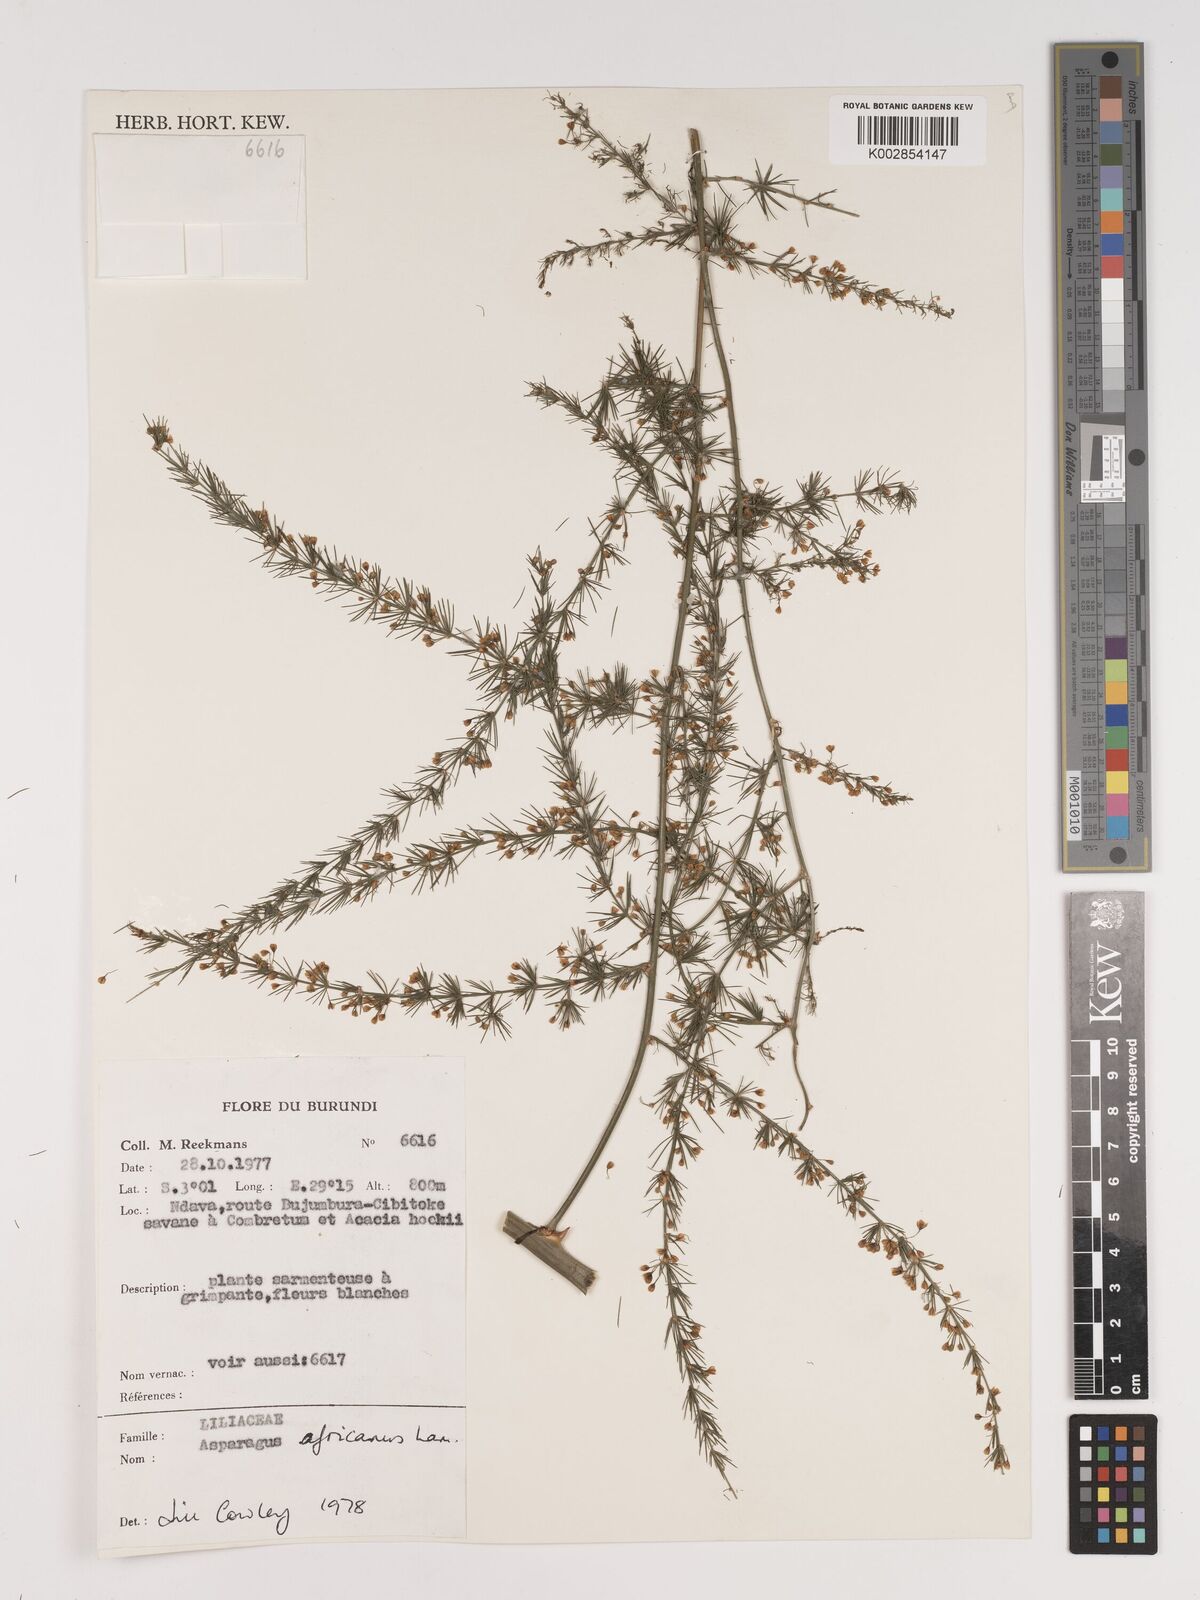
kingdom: Plantae
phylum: Tracheophyta
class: Liliopsida
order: Asparagales
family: Asparagaceae
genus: Asparagus
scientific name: Asparagus africanus
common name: Asparagus-fern
